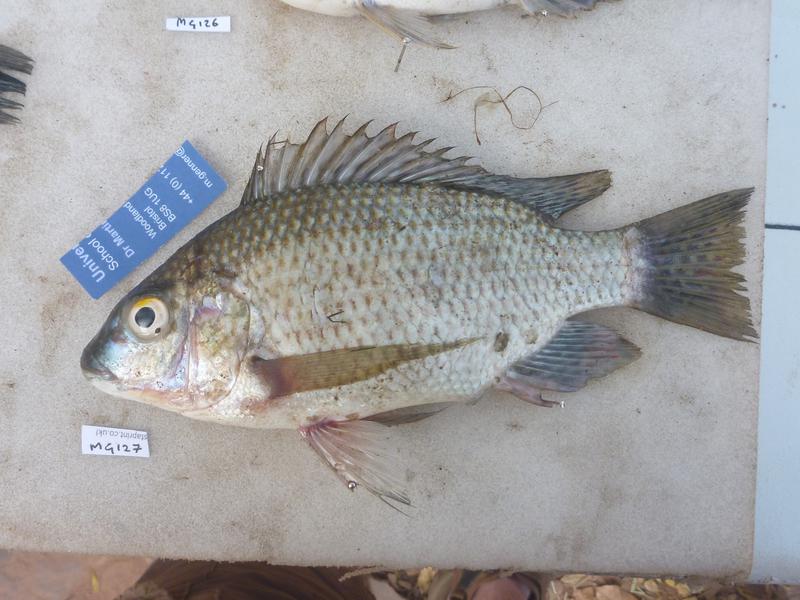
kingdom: Animalia
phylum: Chordata
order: Perciformes
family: Cichlidae
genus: Oreochromis
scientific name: Oreochromis tanganicae
